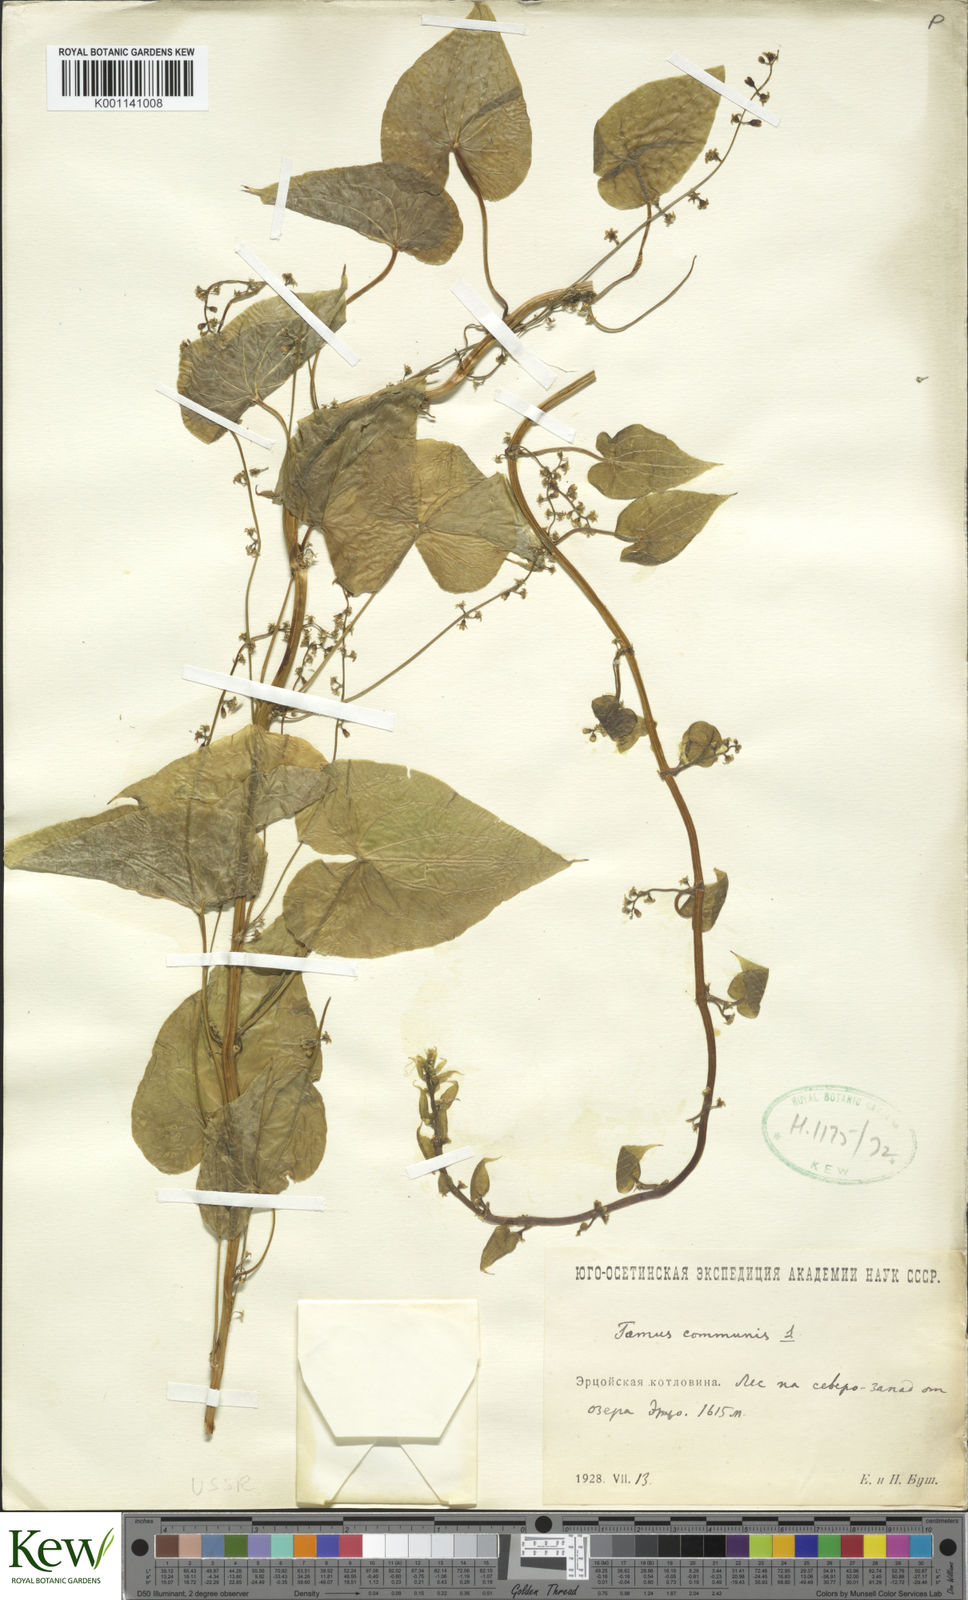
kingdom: Plantae
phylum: Tracheophyta
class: Liliopsida
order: Dioscoreales
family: Dioscoreaceae
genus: Dioscorea
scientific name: Dioscorea communis
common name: Black-bindweed
